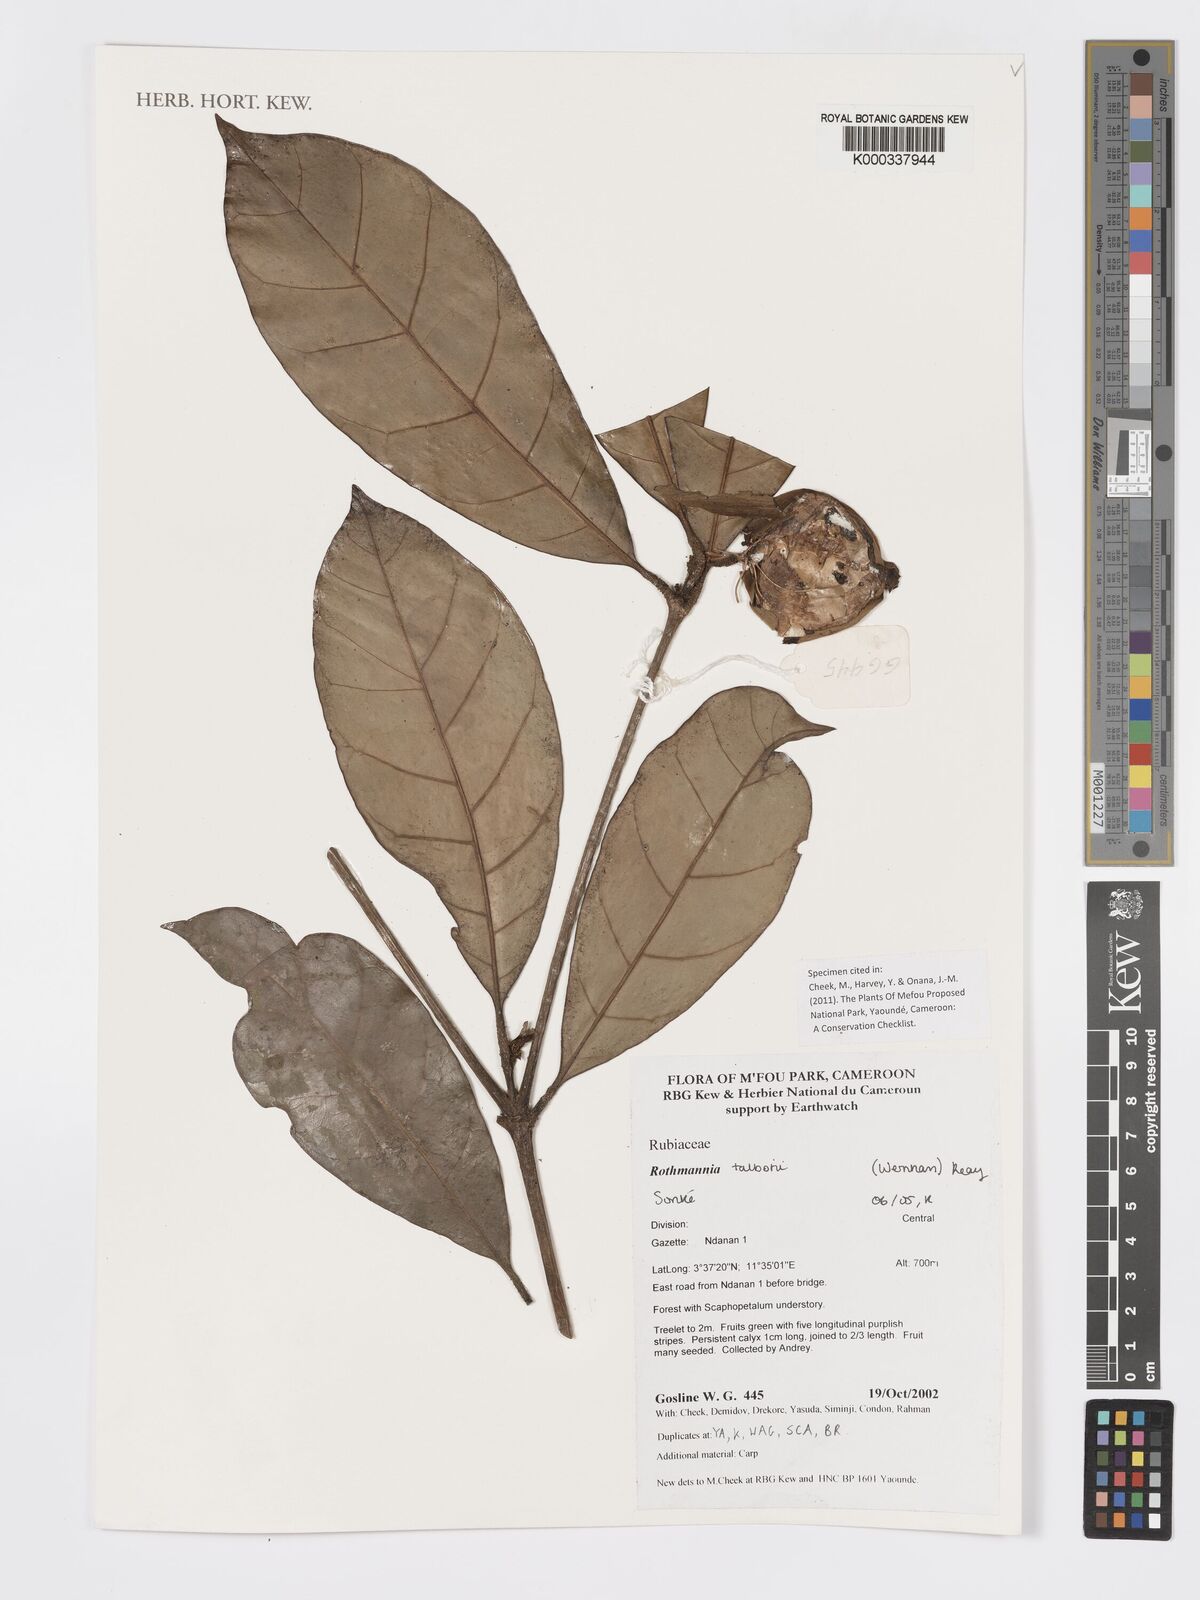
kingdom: Plantae
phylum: Tracheophyta
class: Magnoliopsida
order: Gentianales
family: Rubiaceae
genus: Rothmannia
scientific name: Rothmannia talbotii
